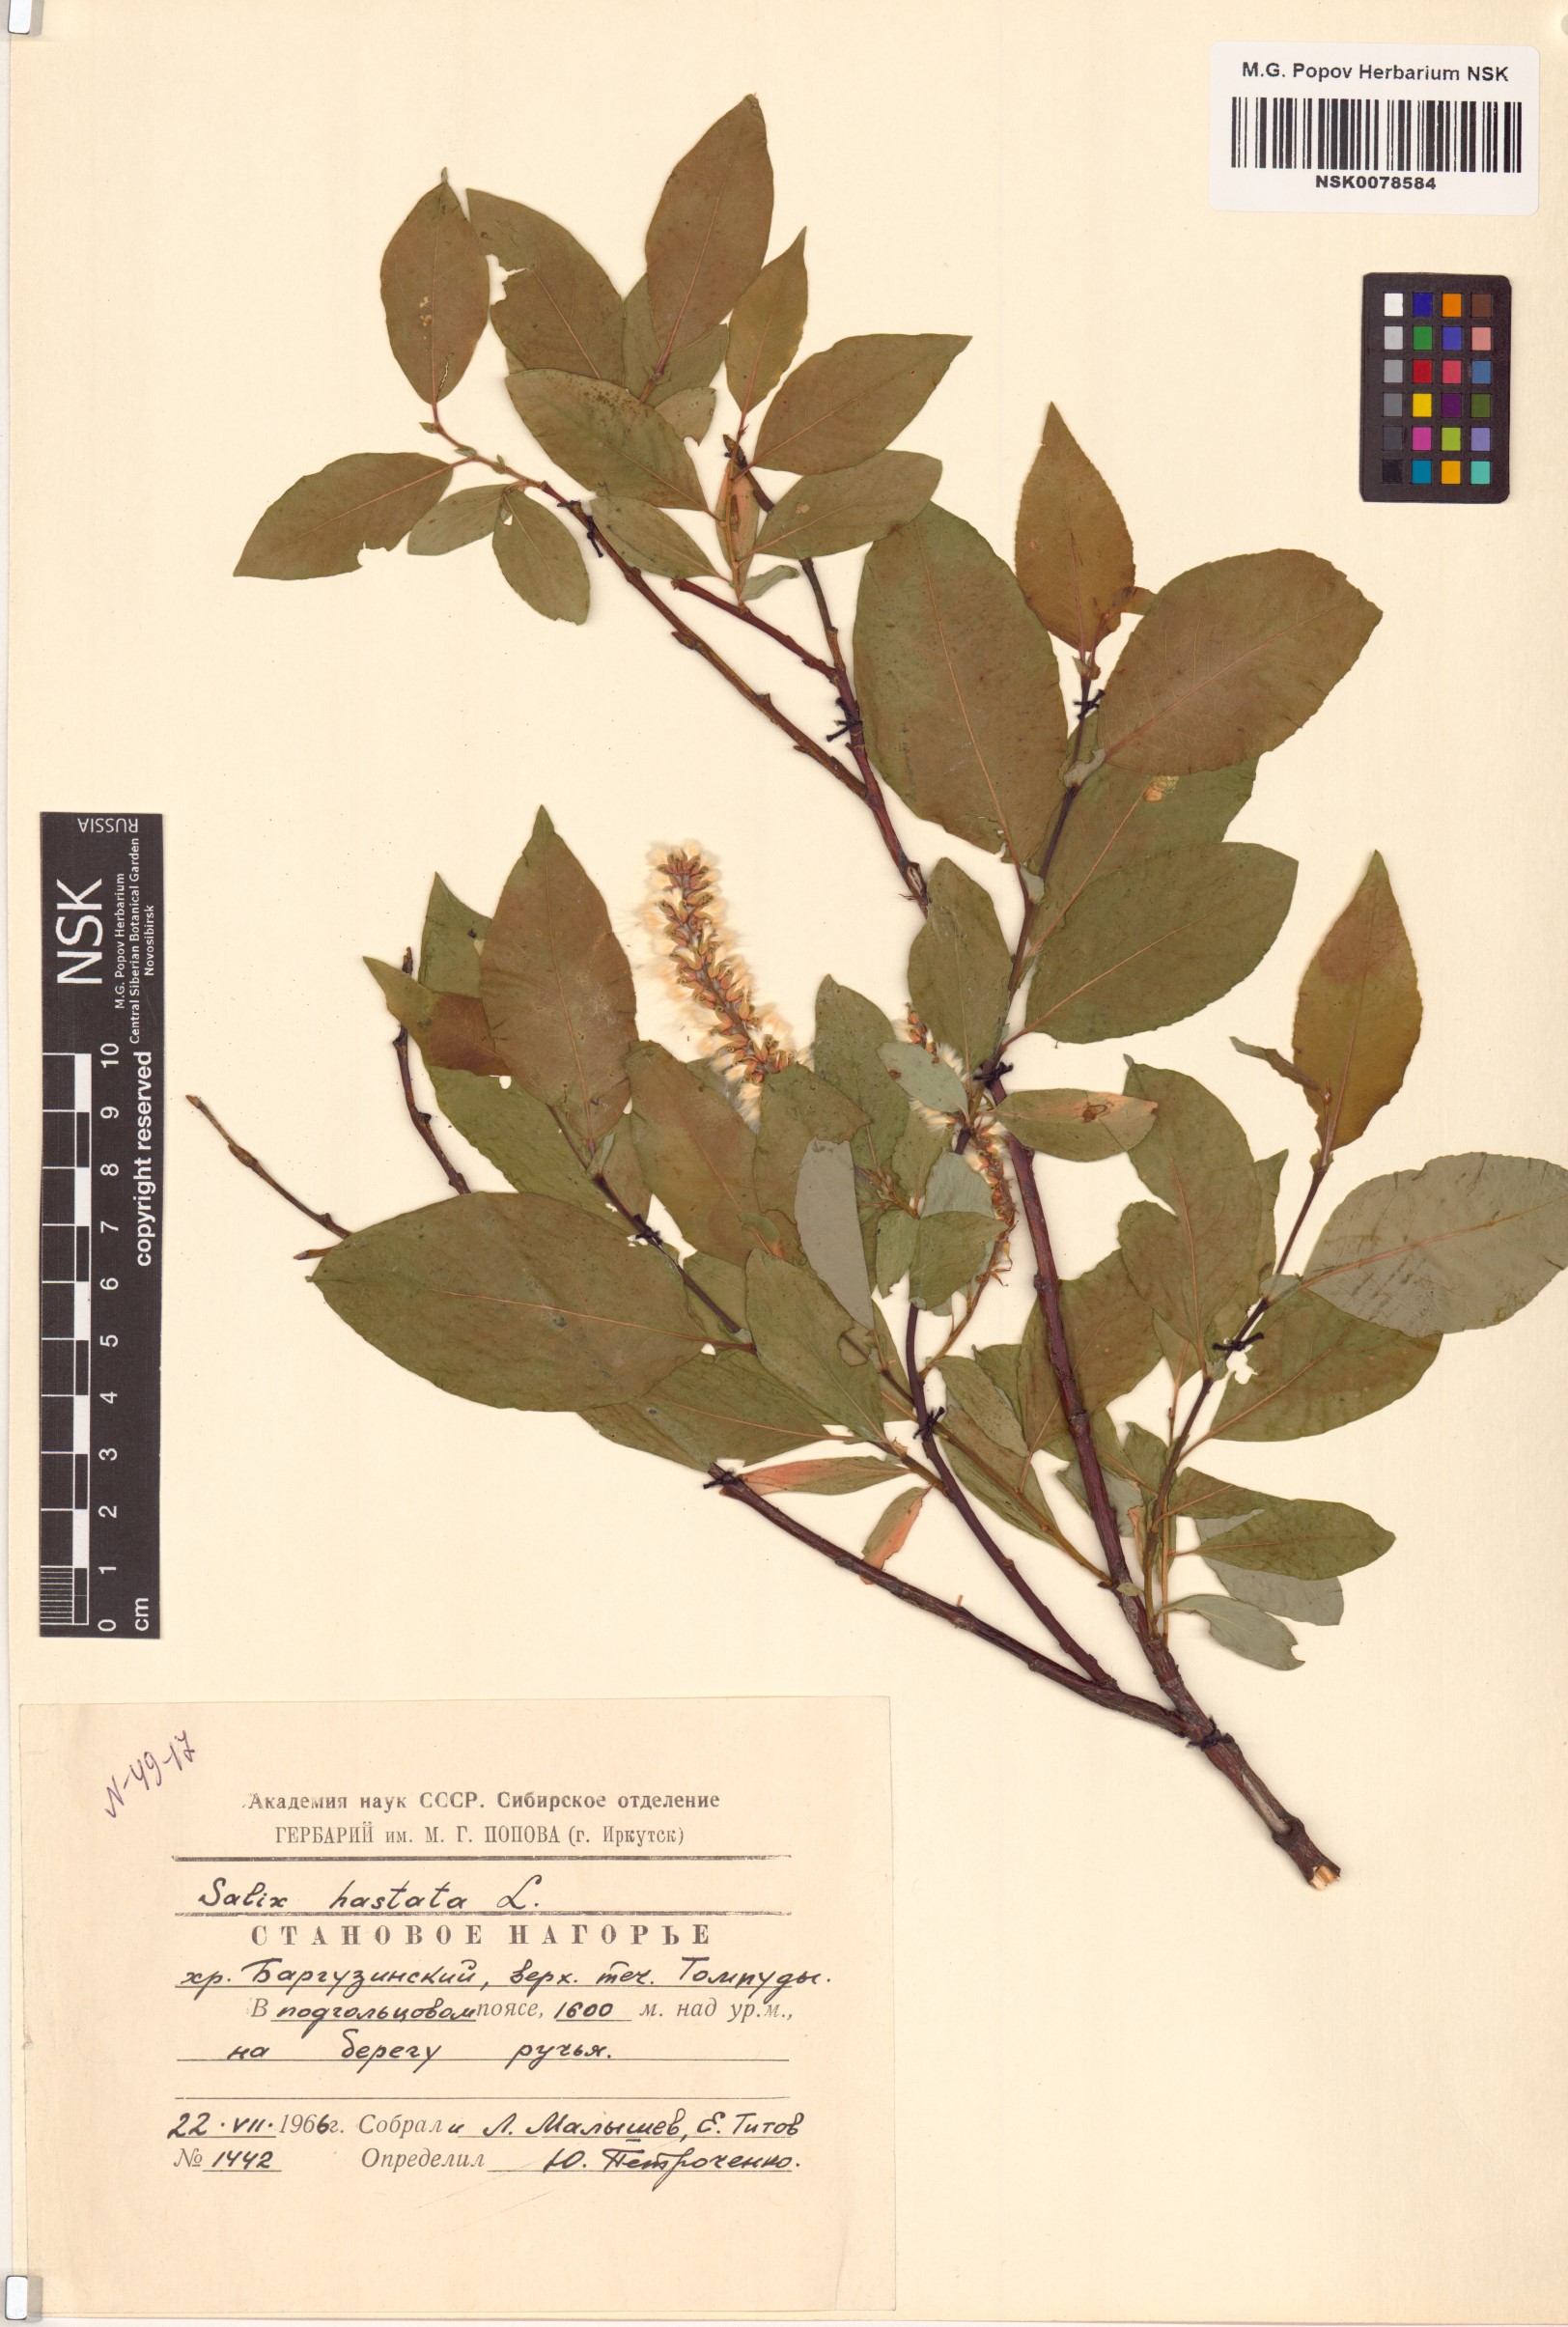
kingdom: Plantae
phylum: Tracheophyta
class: Magnoliopsida
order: Malpighiales
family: Salicaceae
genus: Salix
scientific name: Salix hastata
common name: Halberd willow
